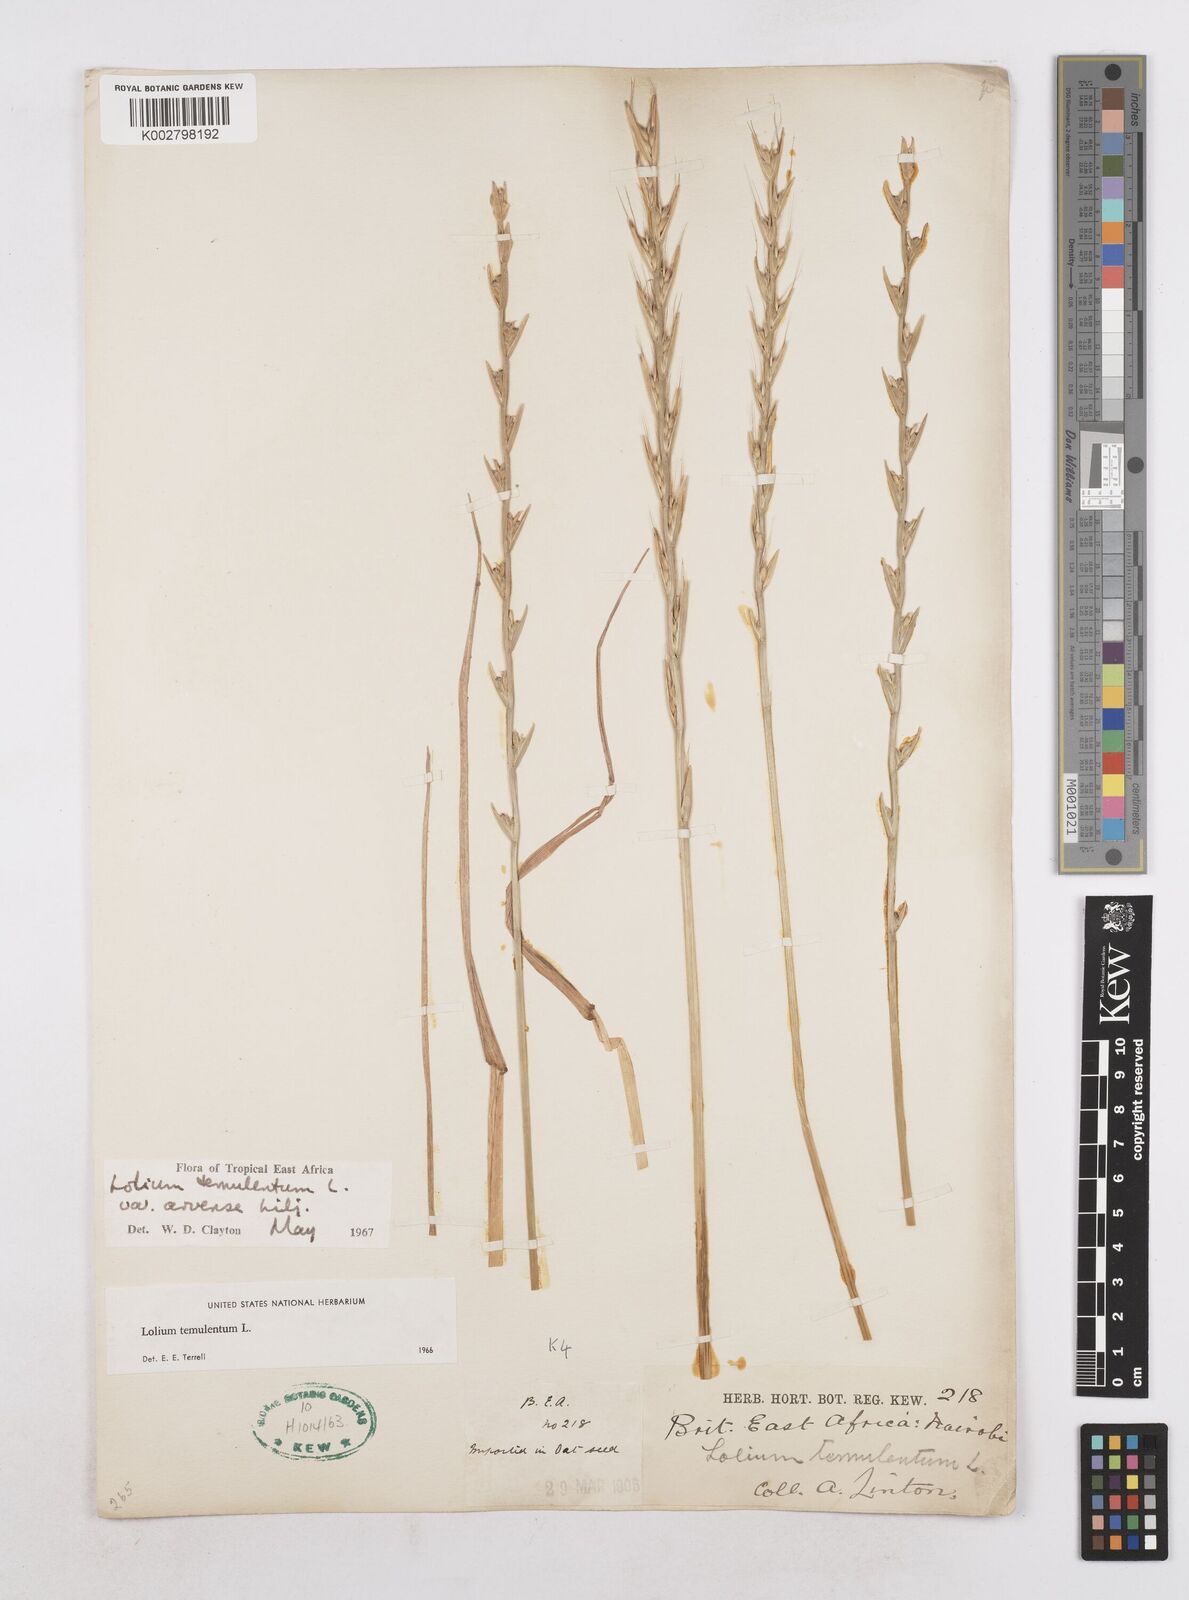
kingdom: Plantae
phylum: Tracheophyta
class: Liliopsida
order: Poales
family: Poaceae
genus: Lolium
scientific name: Lolium temulentum
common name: Darnel
